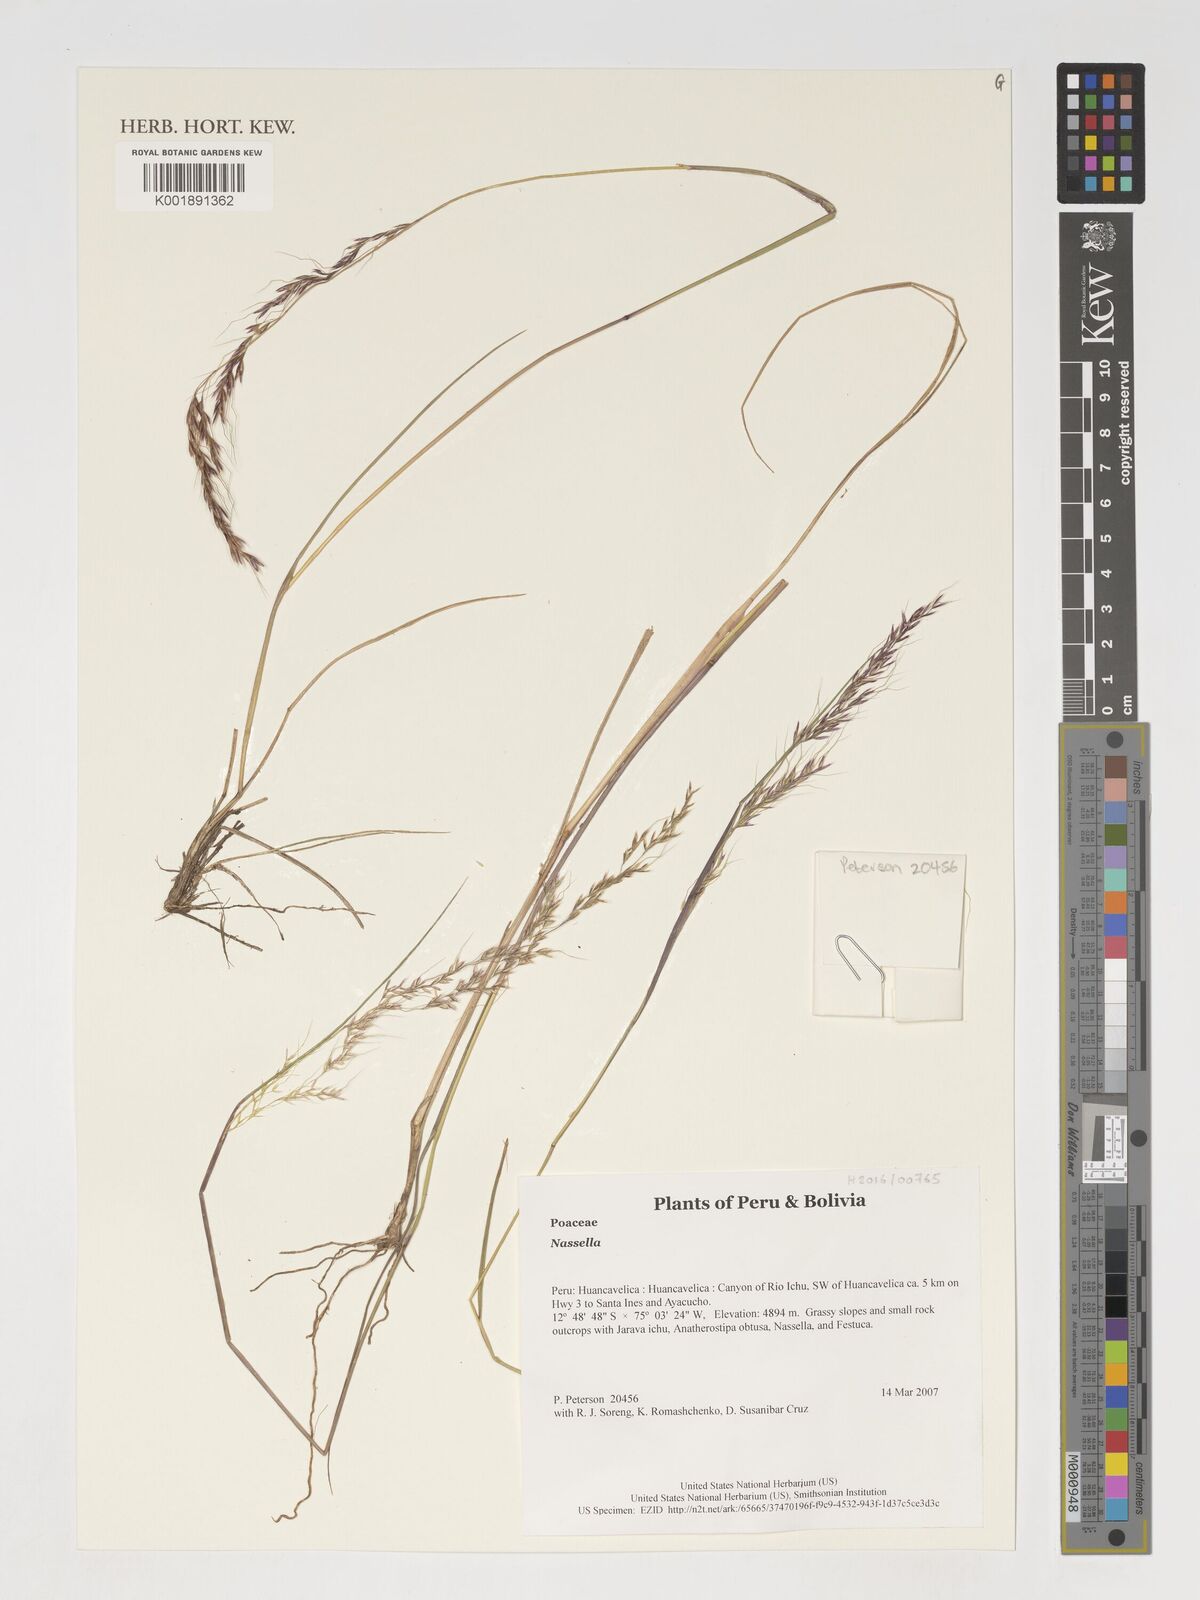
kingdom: Plantae
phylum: Tracheophyta
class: Liliopsida
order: Poales
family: Poaceae
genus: Nassella
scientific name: Nassella
